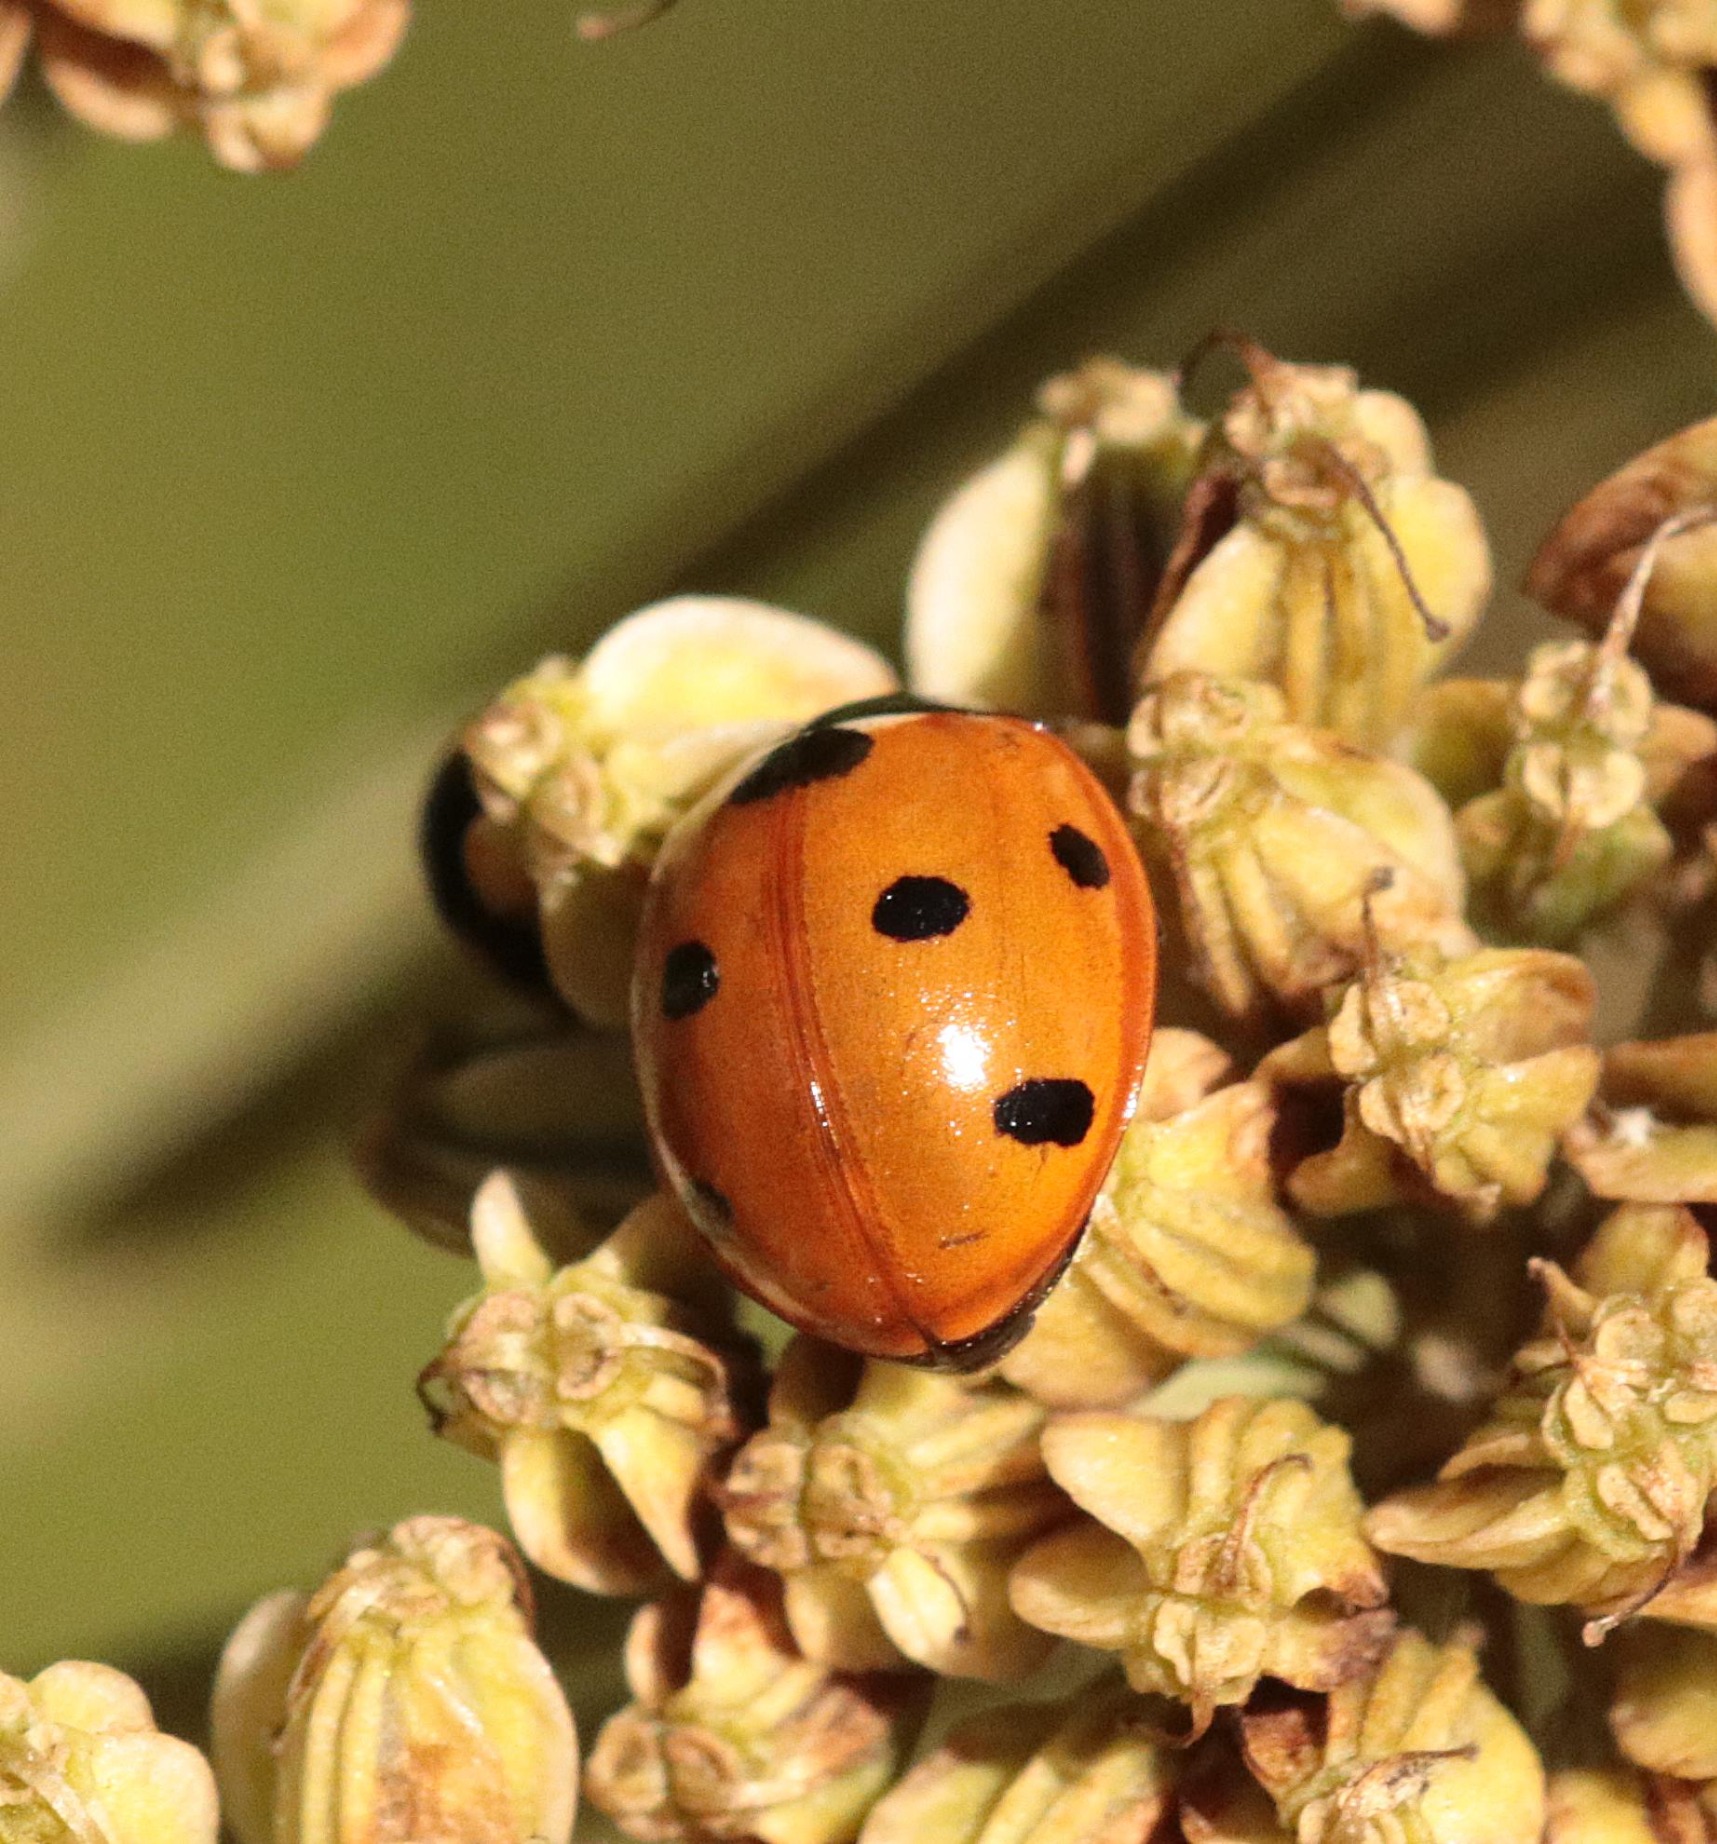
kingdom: Animalia
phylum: Arthropoda
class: Insecta
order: Coleoptera
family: Coccinellidae
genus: Coccinella
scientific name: Coccinella septempunctata
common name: Syvplettet mariehøne
